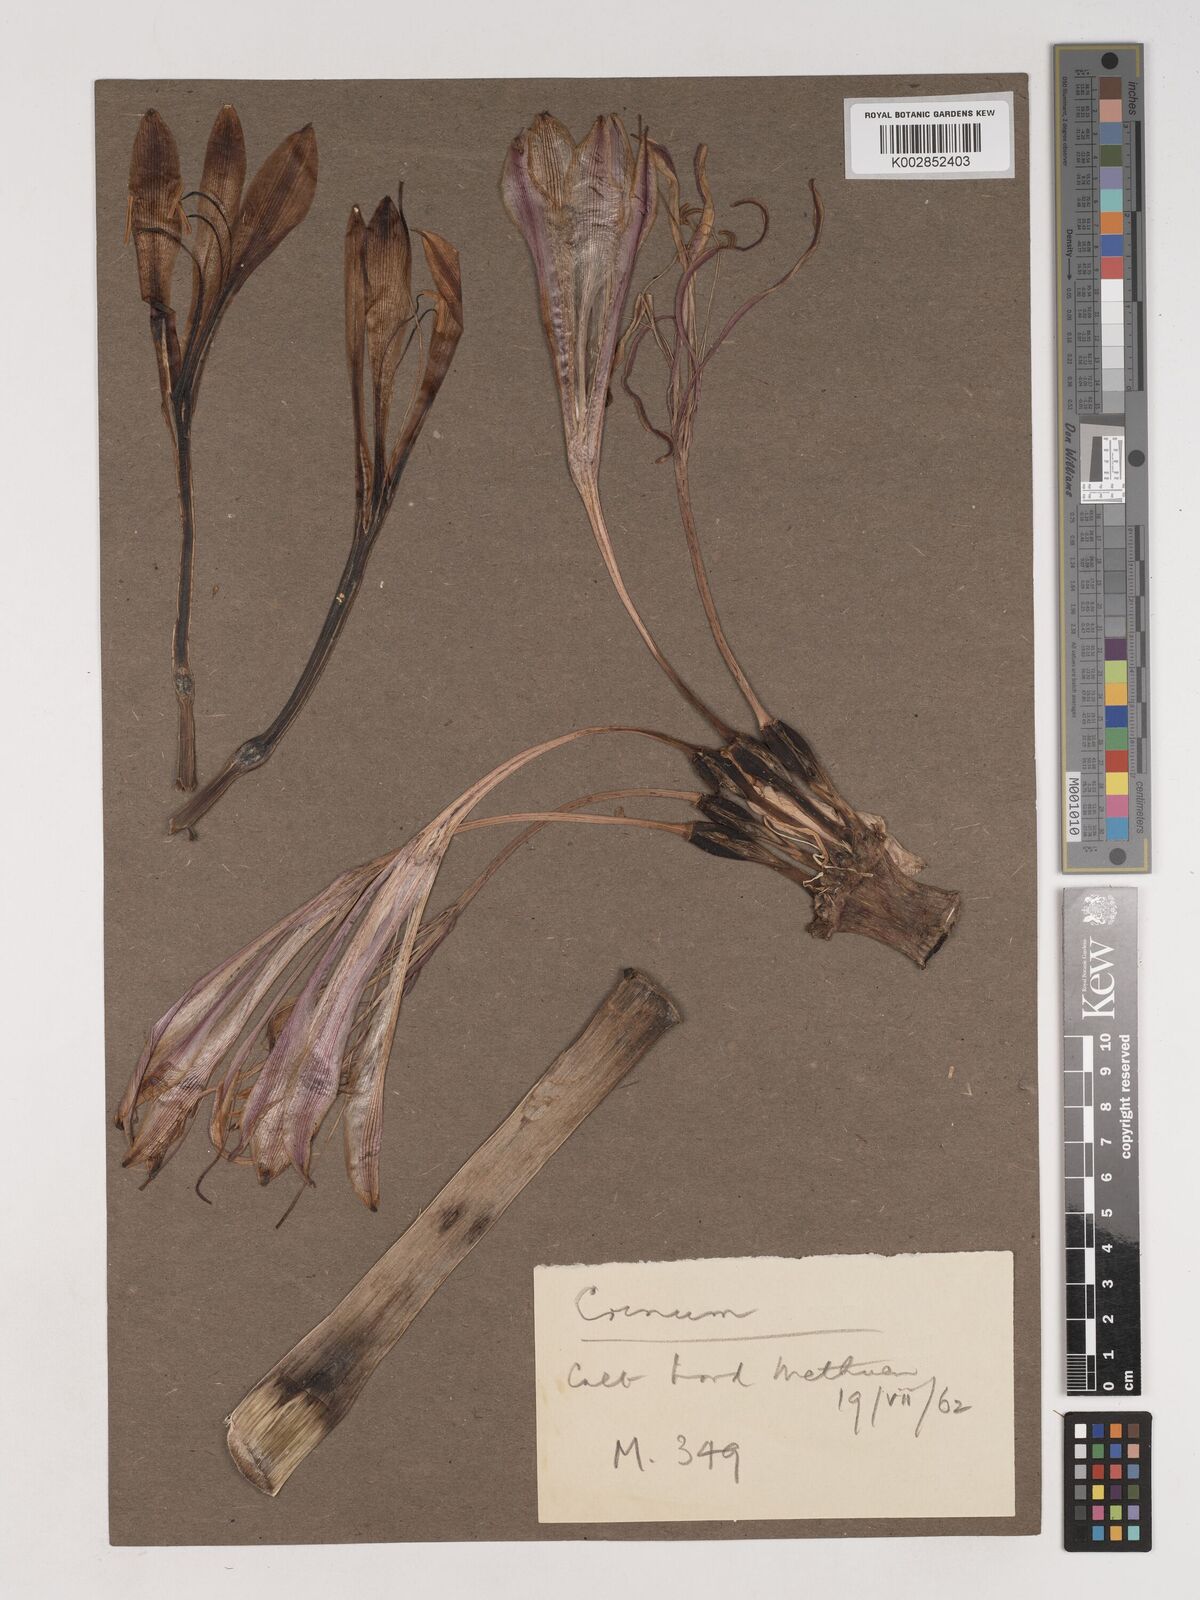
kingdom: Plantae
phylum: Tracheophyta
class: Liliopsida
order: Asparagales
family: Amaryllidaceae
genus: Crinum
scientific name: Crinum stuhlmannii
